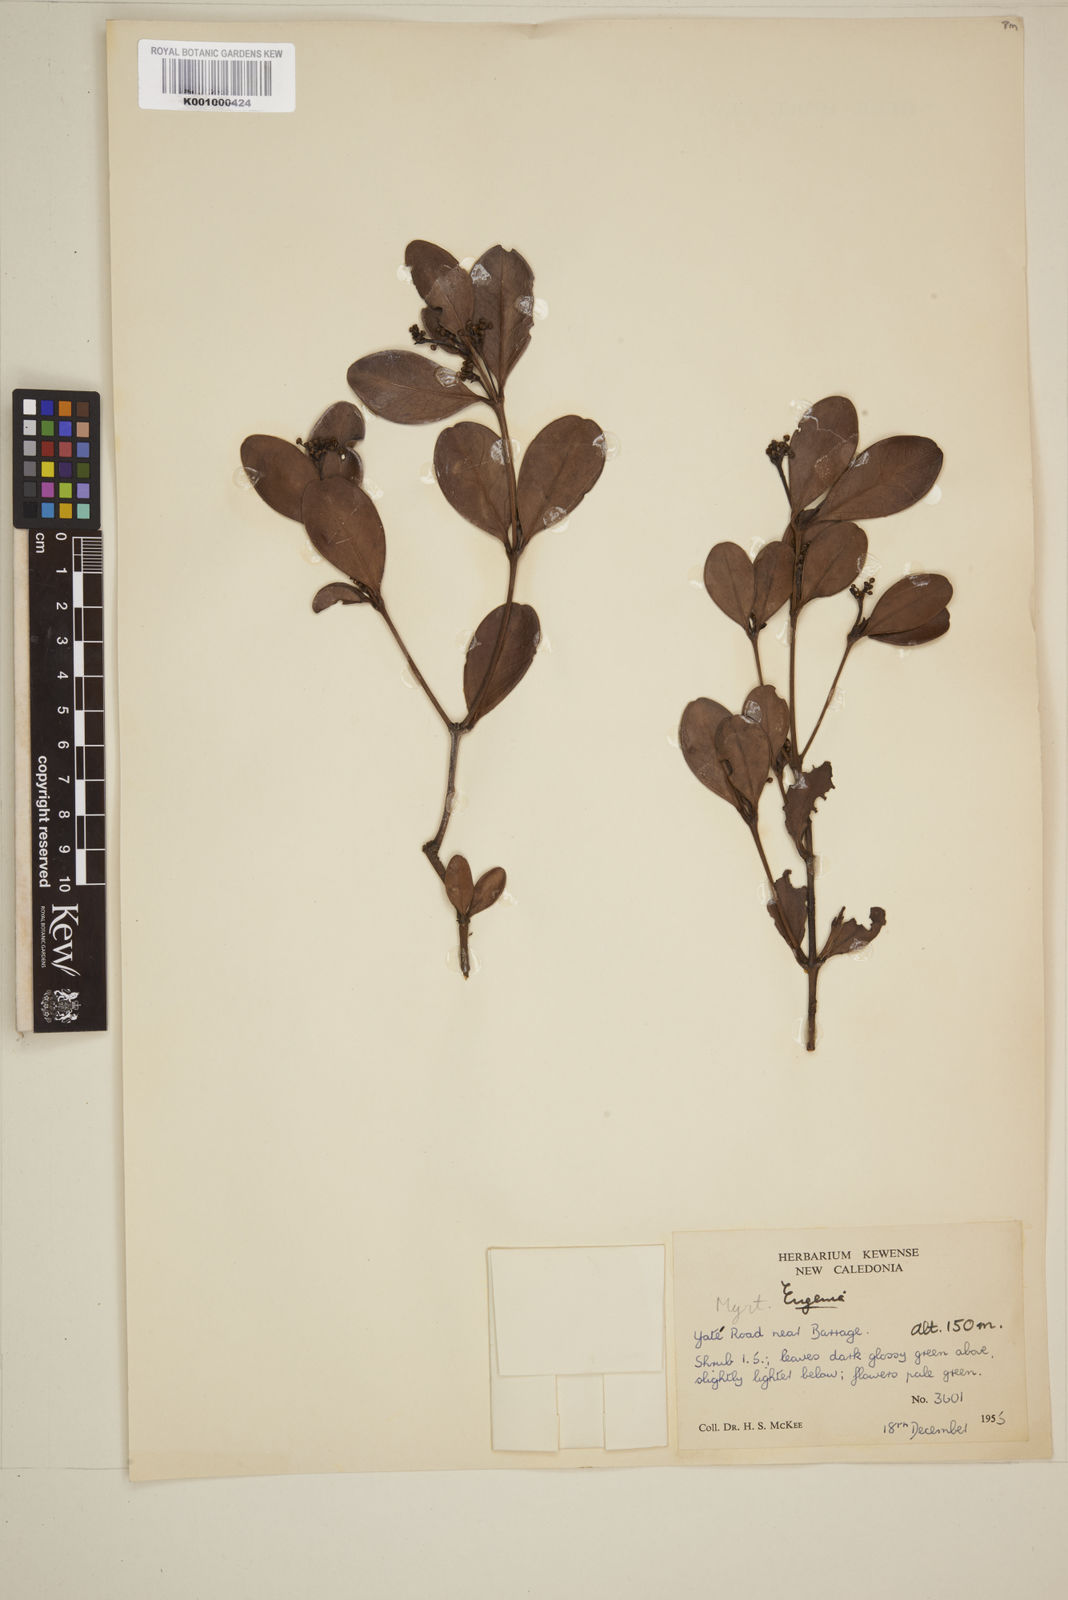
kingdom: Plantae
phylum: Tracheophyta
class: Magnoliopsida
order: Myrtales
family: Myrtaceae
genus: Eugenia
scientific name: Eugenia
